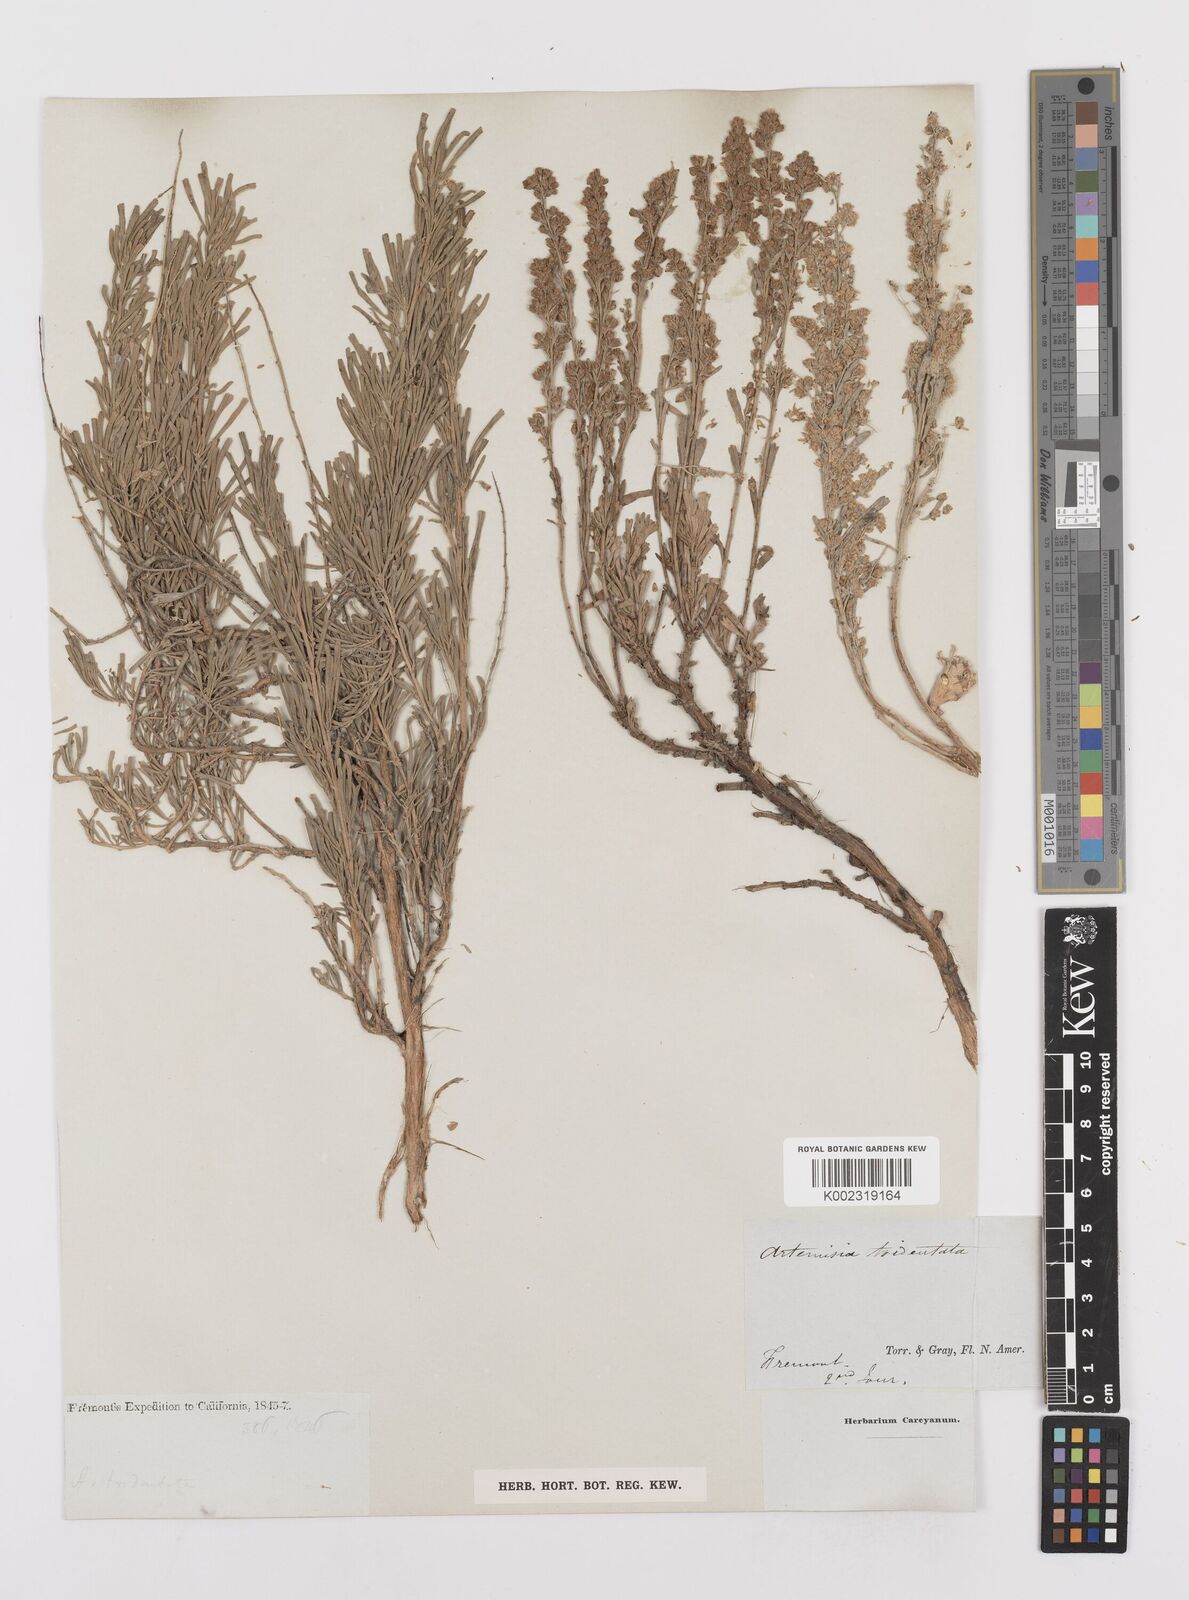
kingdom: Plantae
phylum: Tracheophyta
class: Magnoliopsida
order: Asterales
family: Asteraceae
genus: Artemisia
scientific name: Artemisia tridentata
